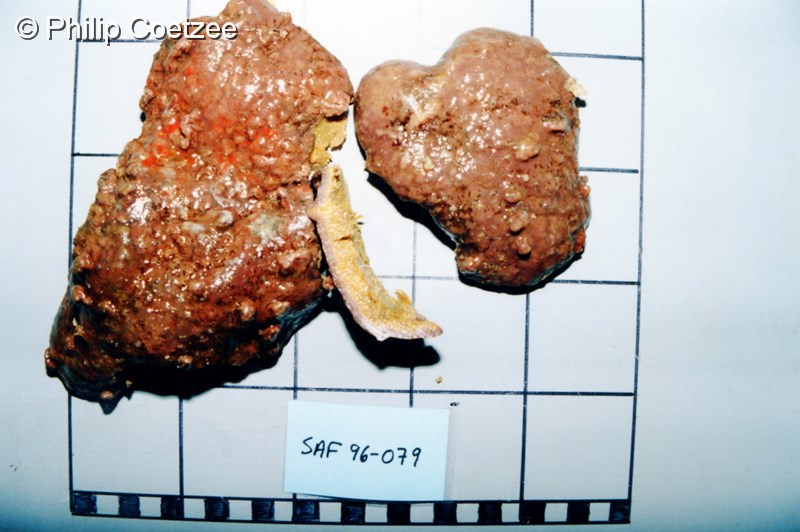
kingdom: Animalia
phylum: Porifera
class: Demospongiae
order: Polymastiida
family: Polymastiidae
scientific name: Polymastiidae
